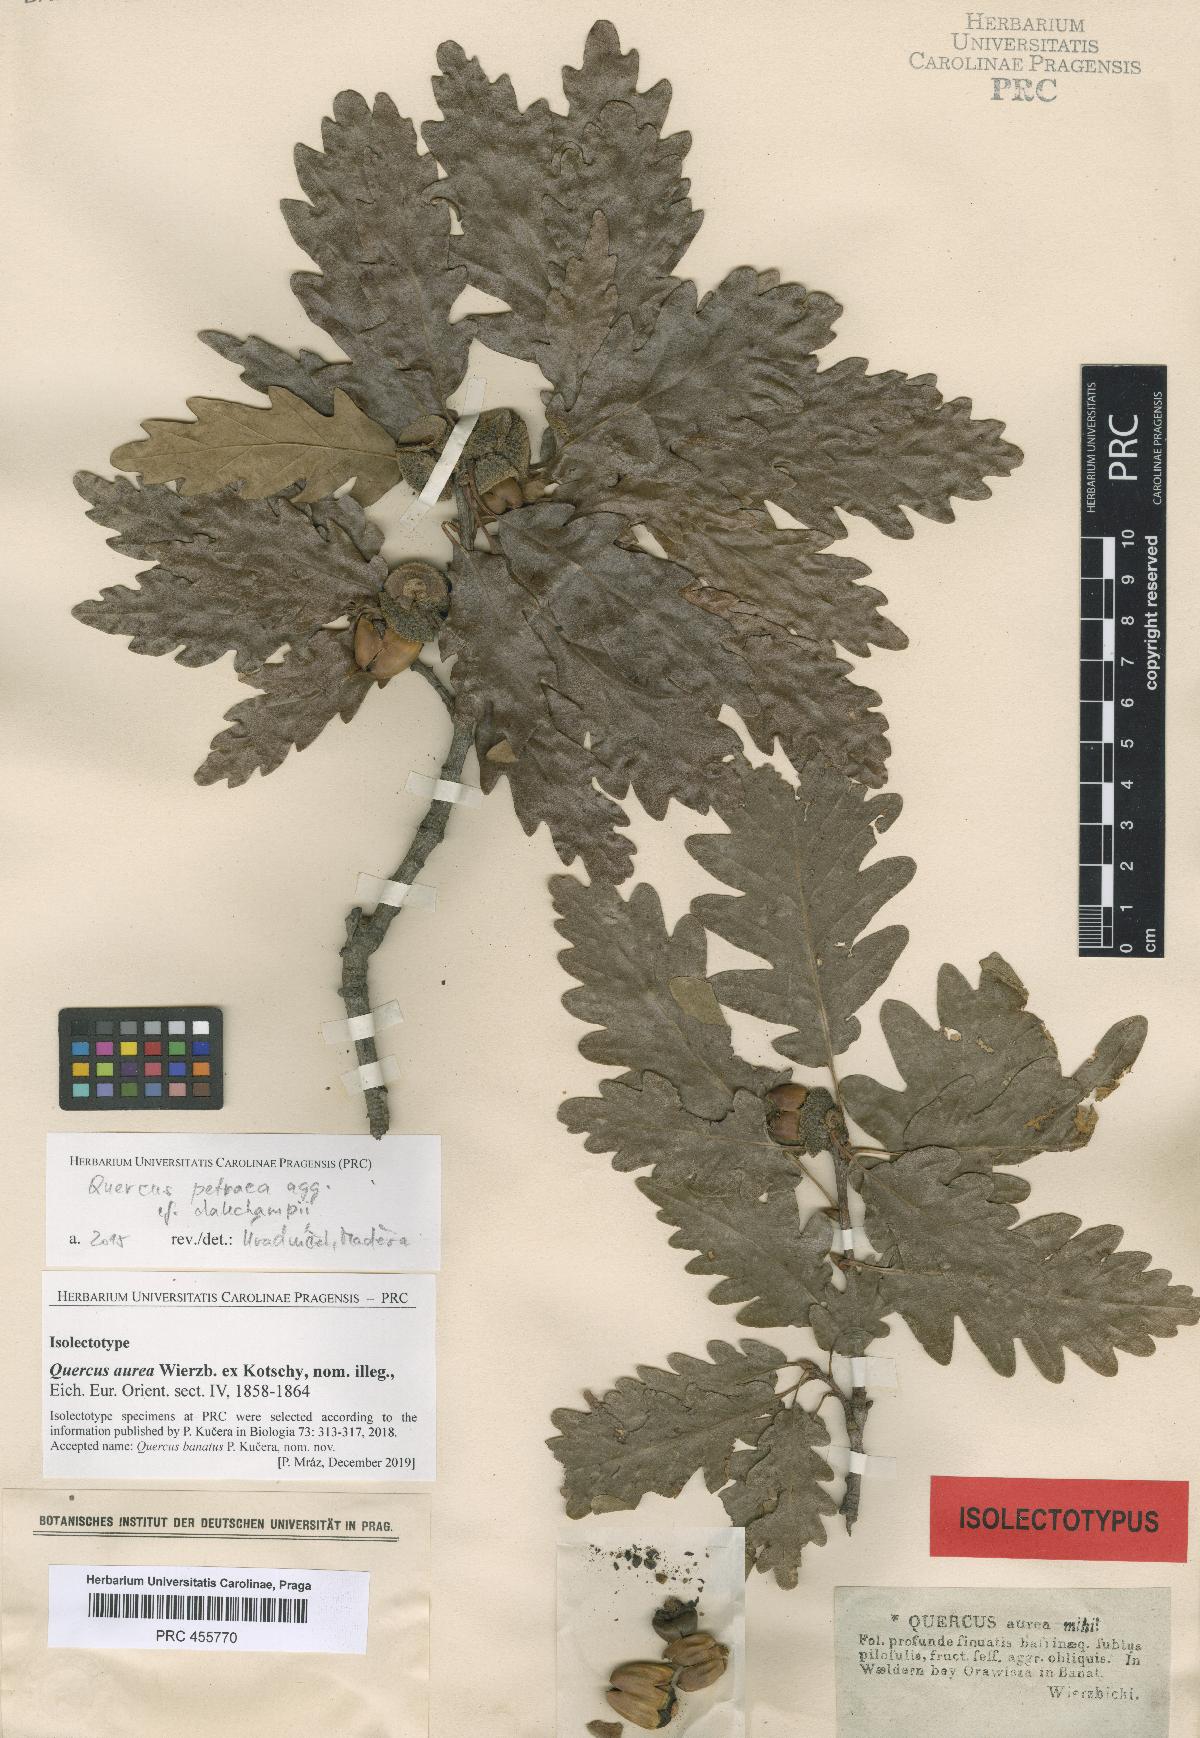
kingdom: Plantae
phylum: Tracheophyta
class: Magnoliopsida
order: Fagales
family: Fagaceae
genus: Quercus
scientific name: Quercus dalechampii
